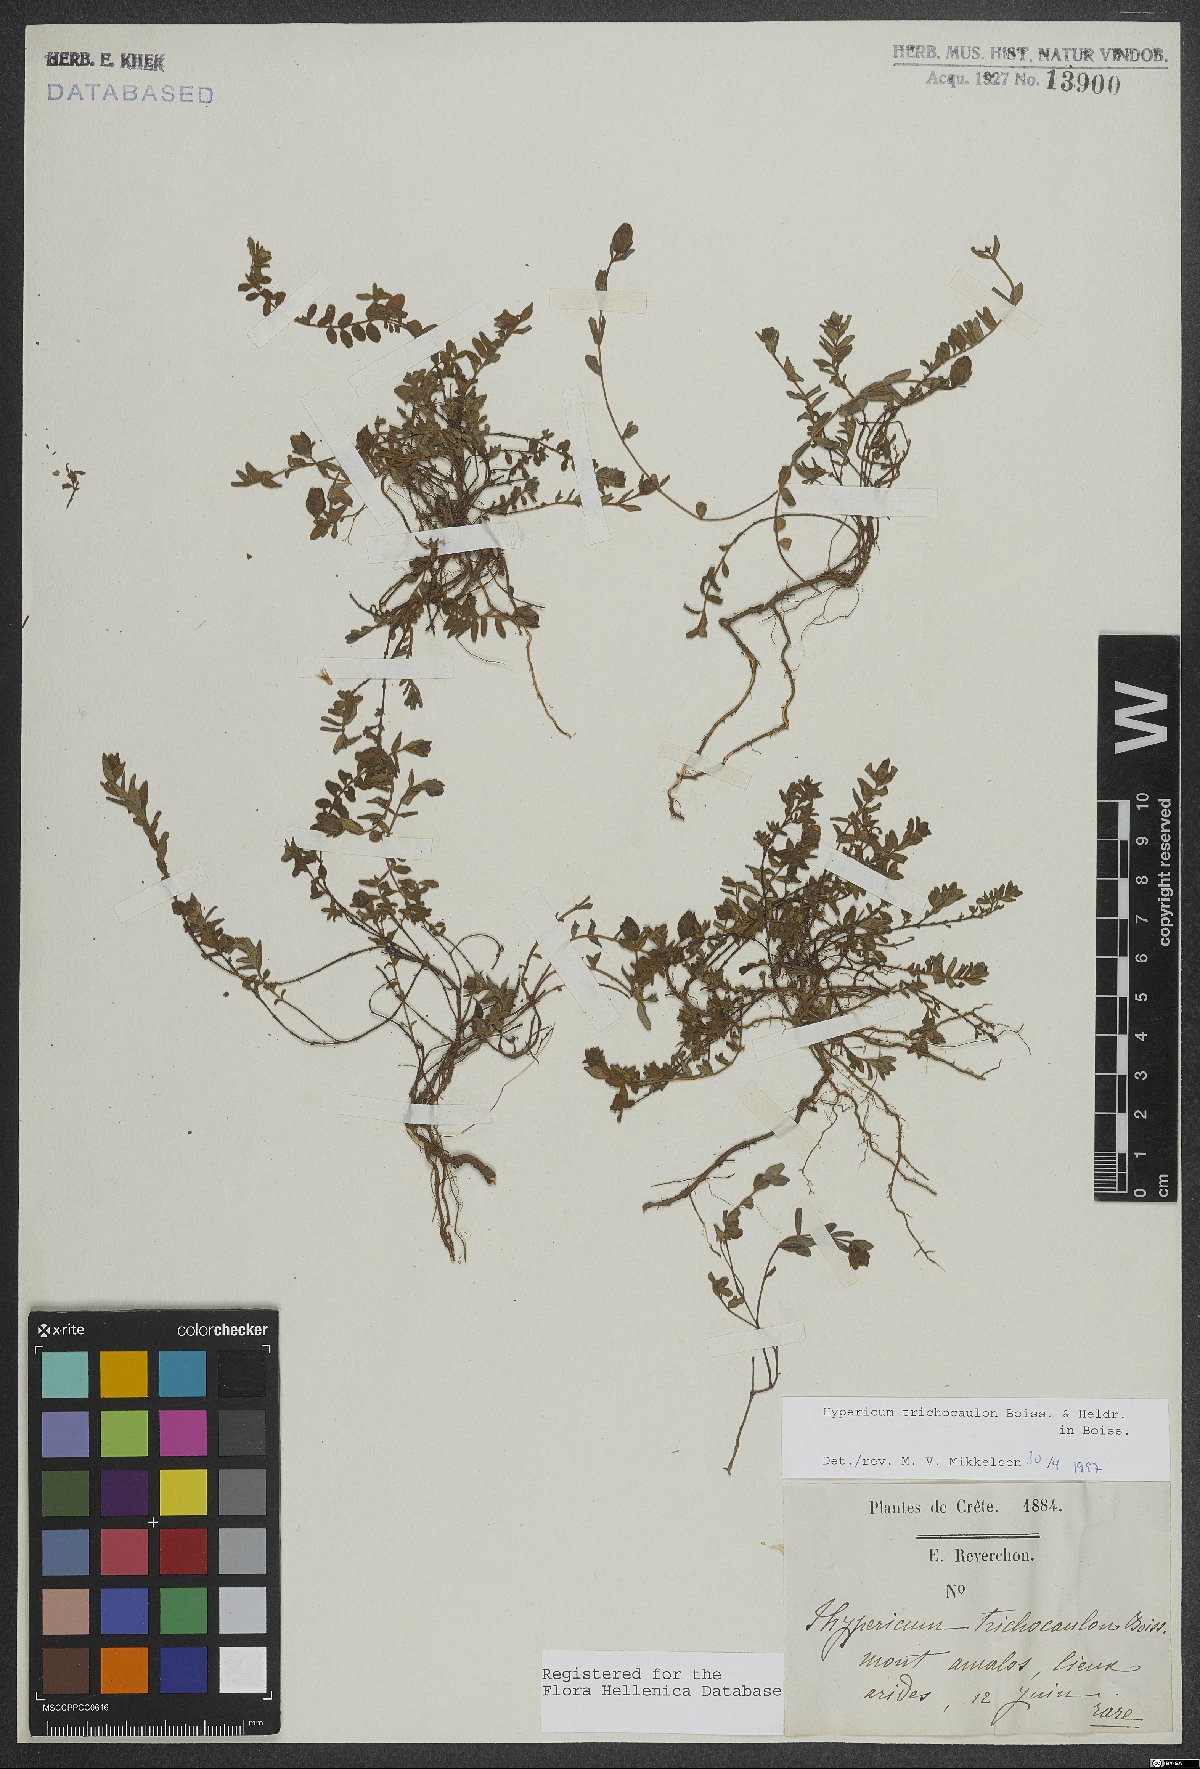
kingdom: Plantae
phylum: Tracheophyta
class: Magnoliopsida
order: Malpighiales
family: Hypericaceae
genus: Hypericum
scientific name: Hypericum trichocaulon
